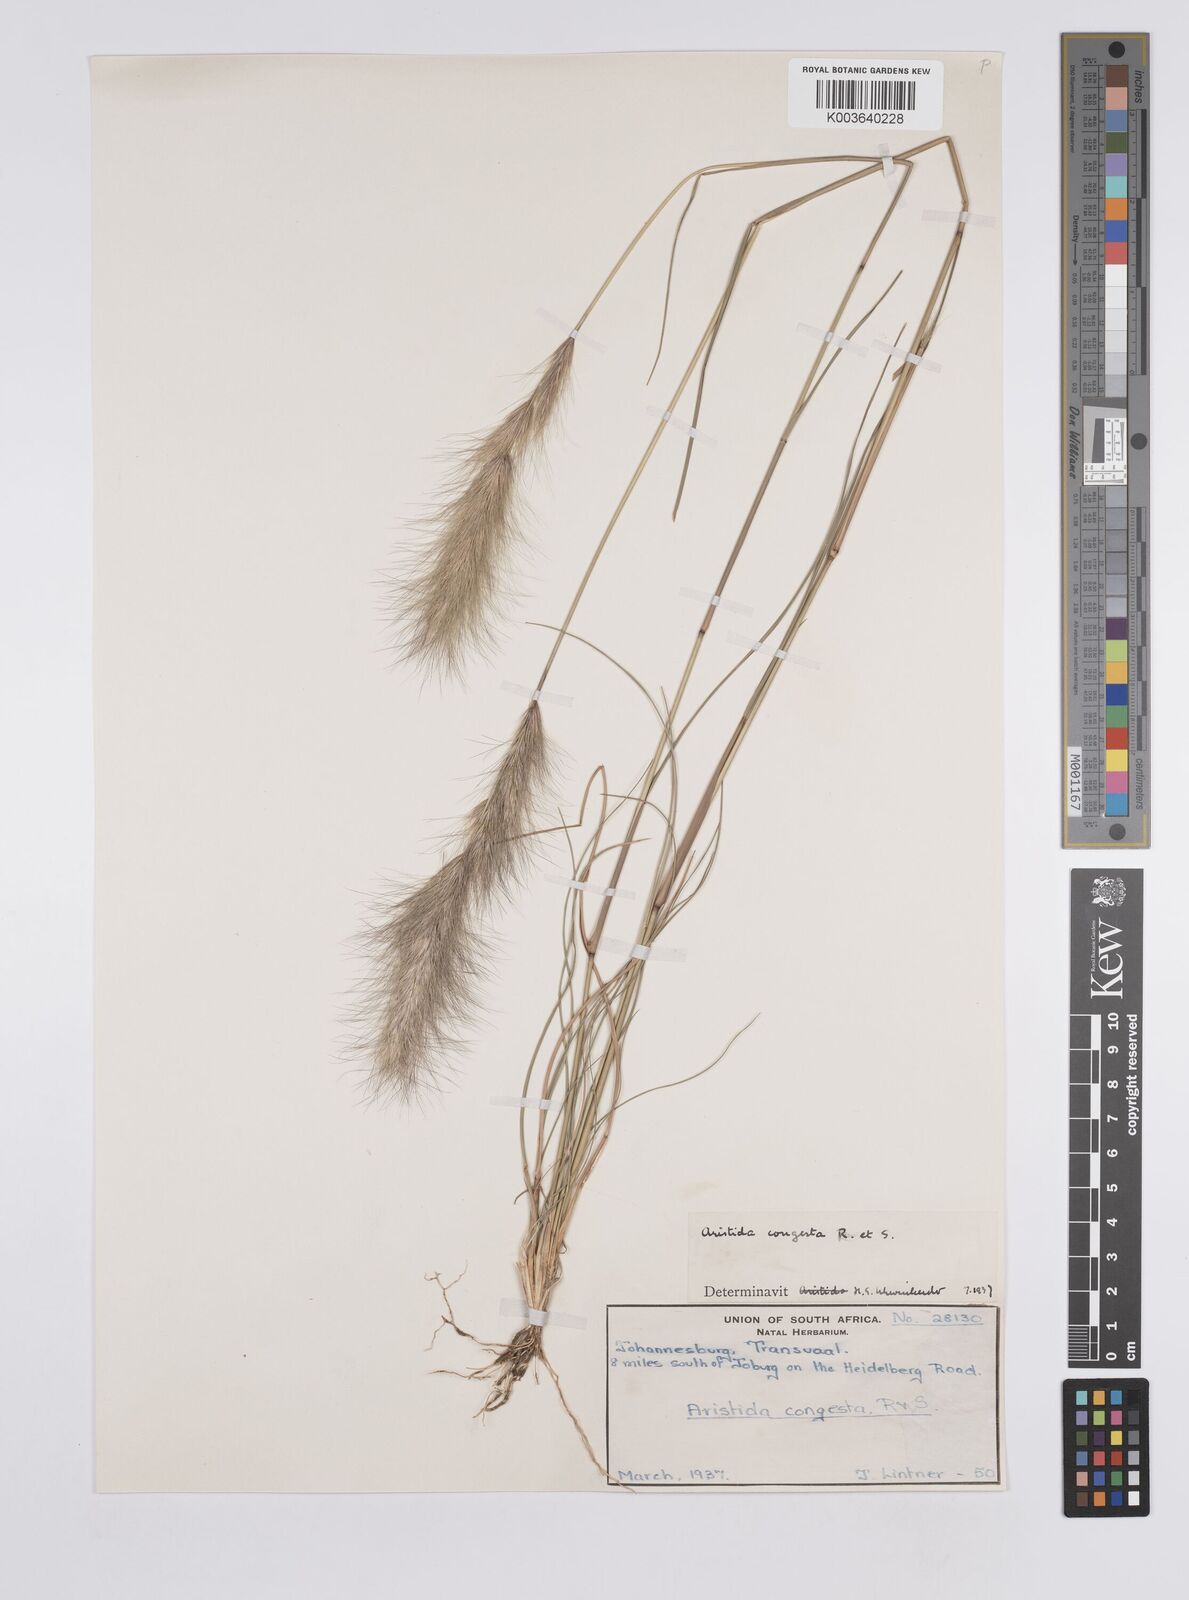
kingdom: Plantae
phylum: Tracheophyta
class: Liliopsida
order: Poales
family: Poaceae
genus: Aristida
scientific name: Aristida congesta
